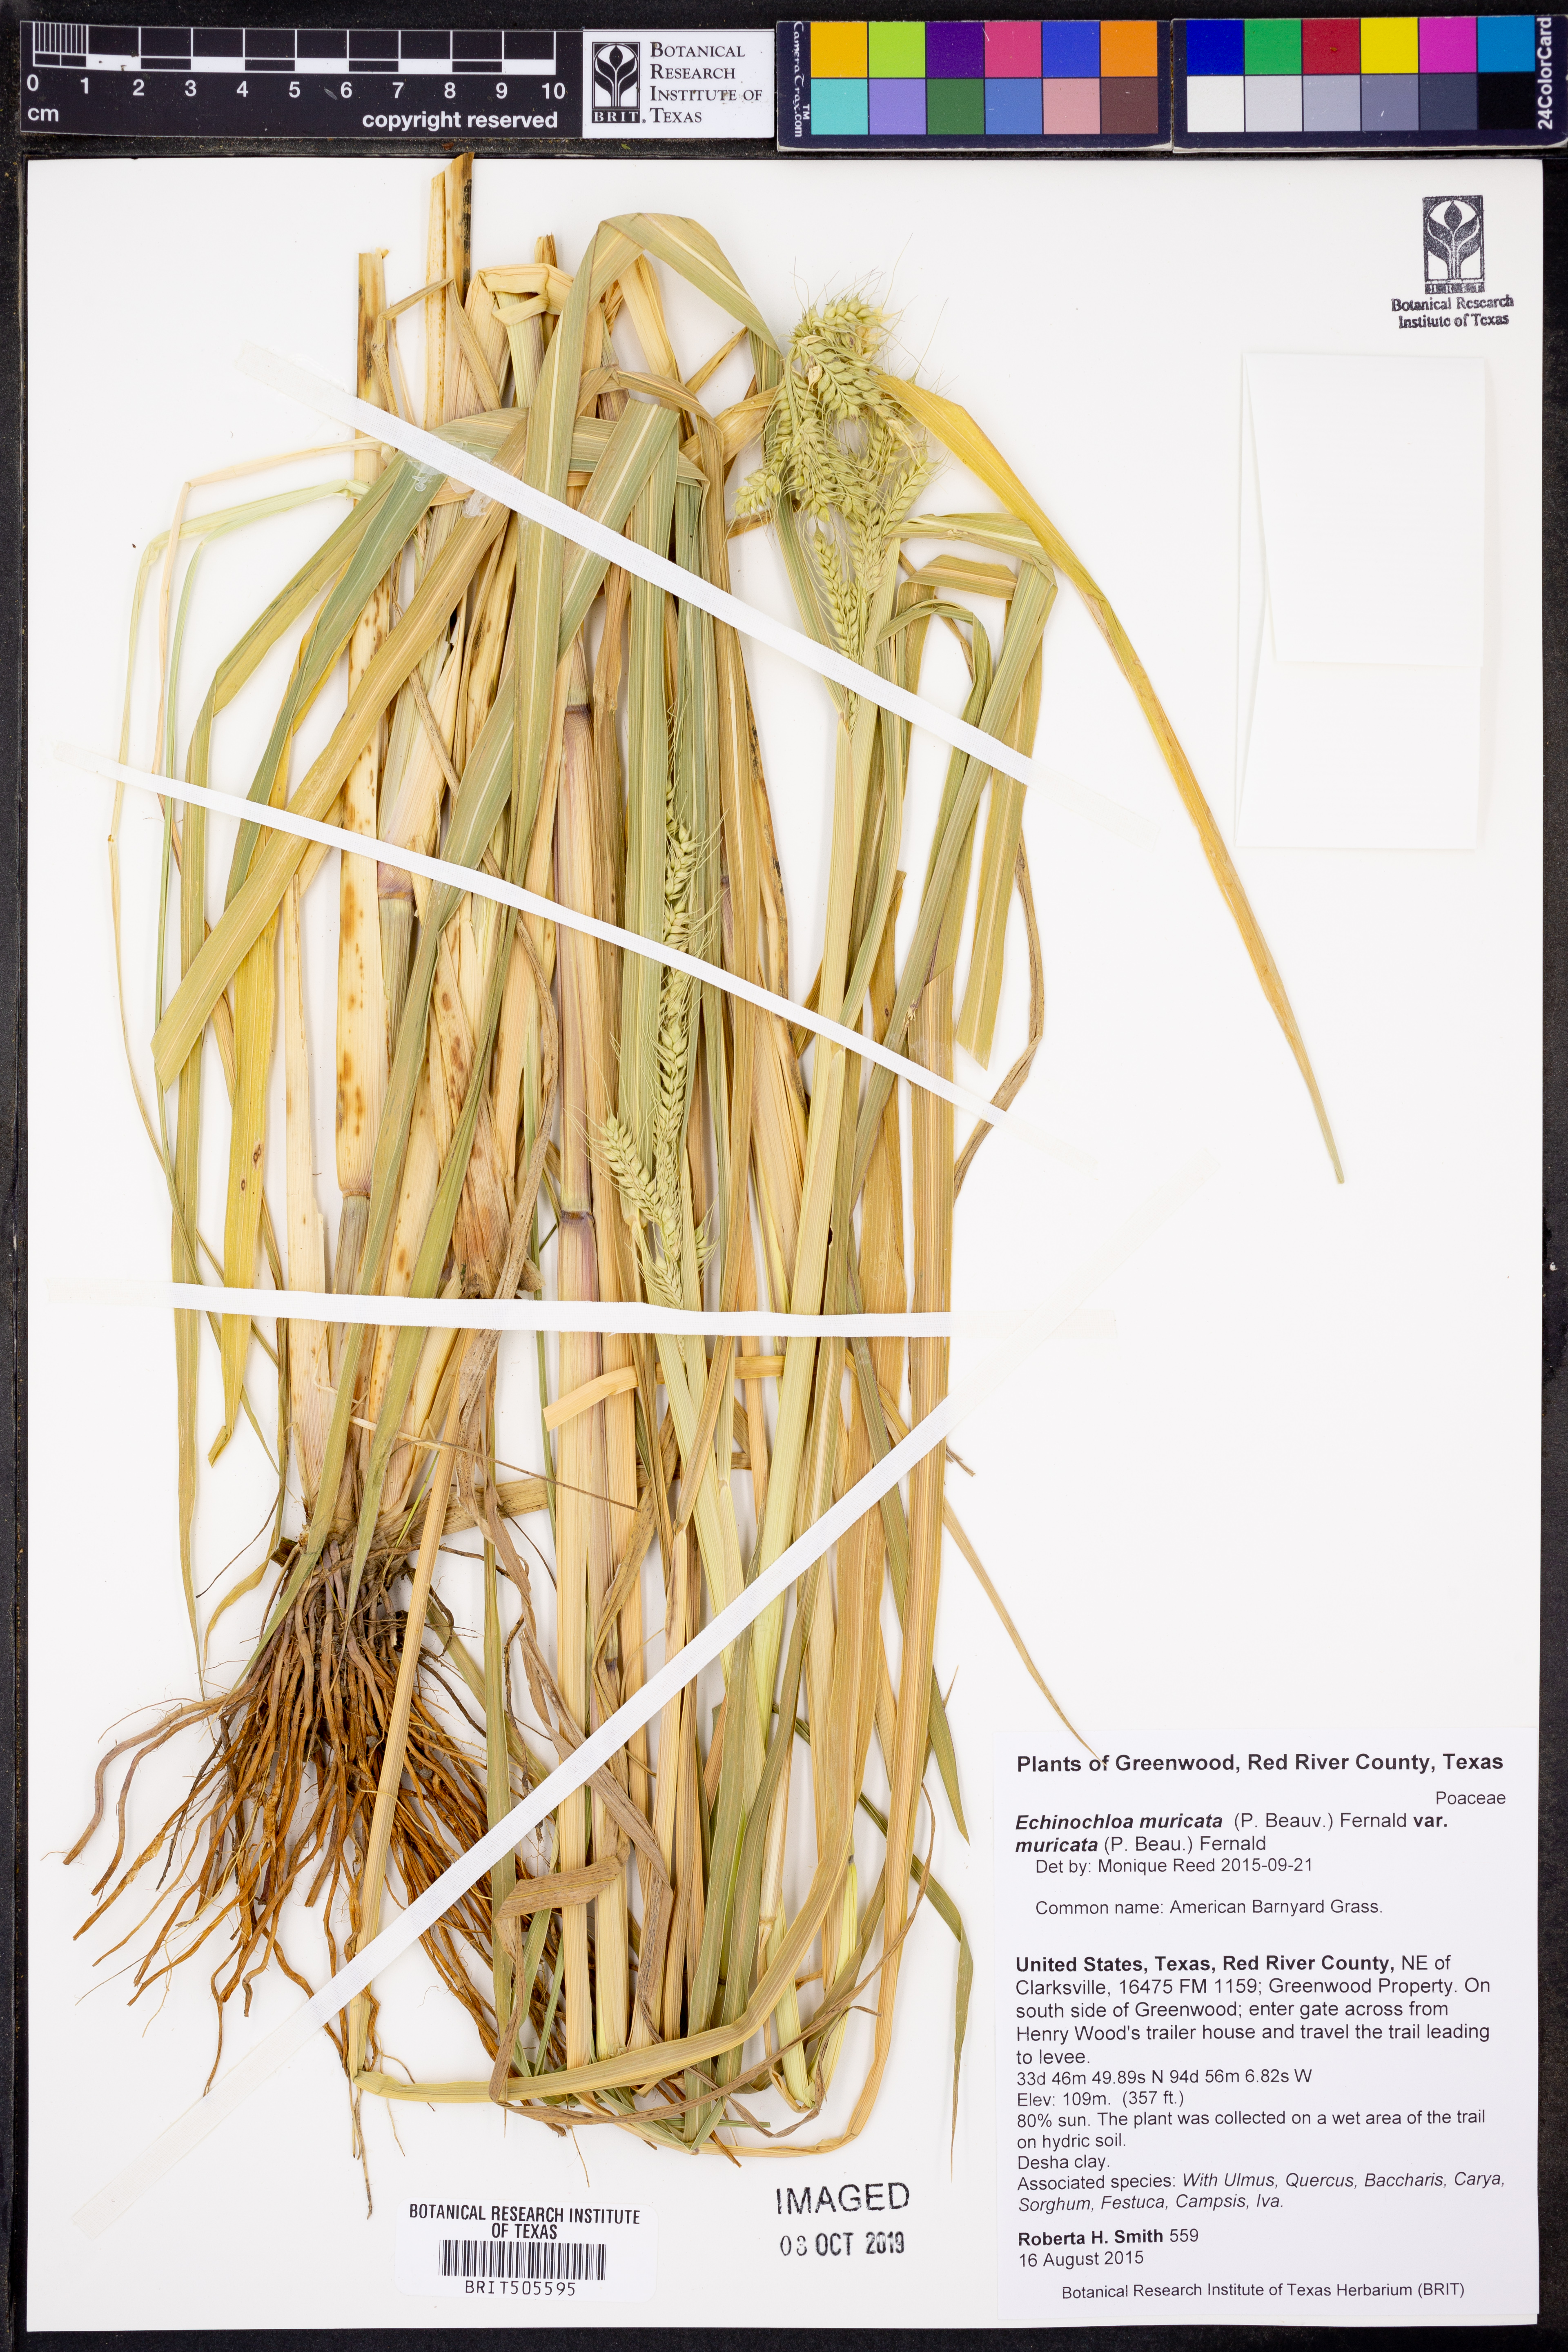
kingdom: Plantae
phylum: Tracheophyta
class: Liliopsida
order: Poales
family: Poaceae
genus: Echinochloa
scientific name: Echinochloa muricata
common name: American barnyard grass
